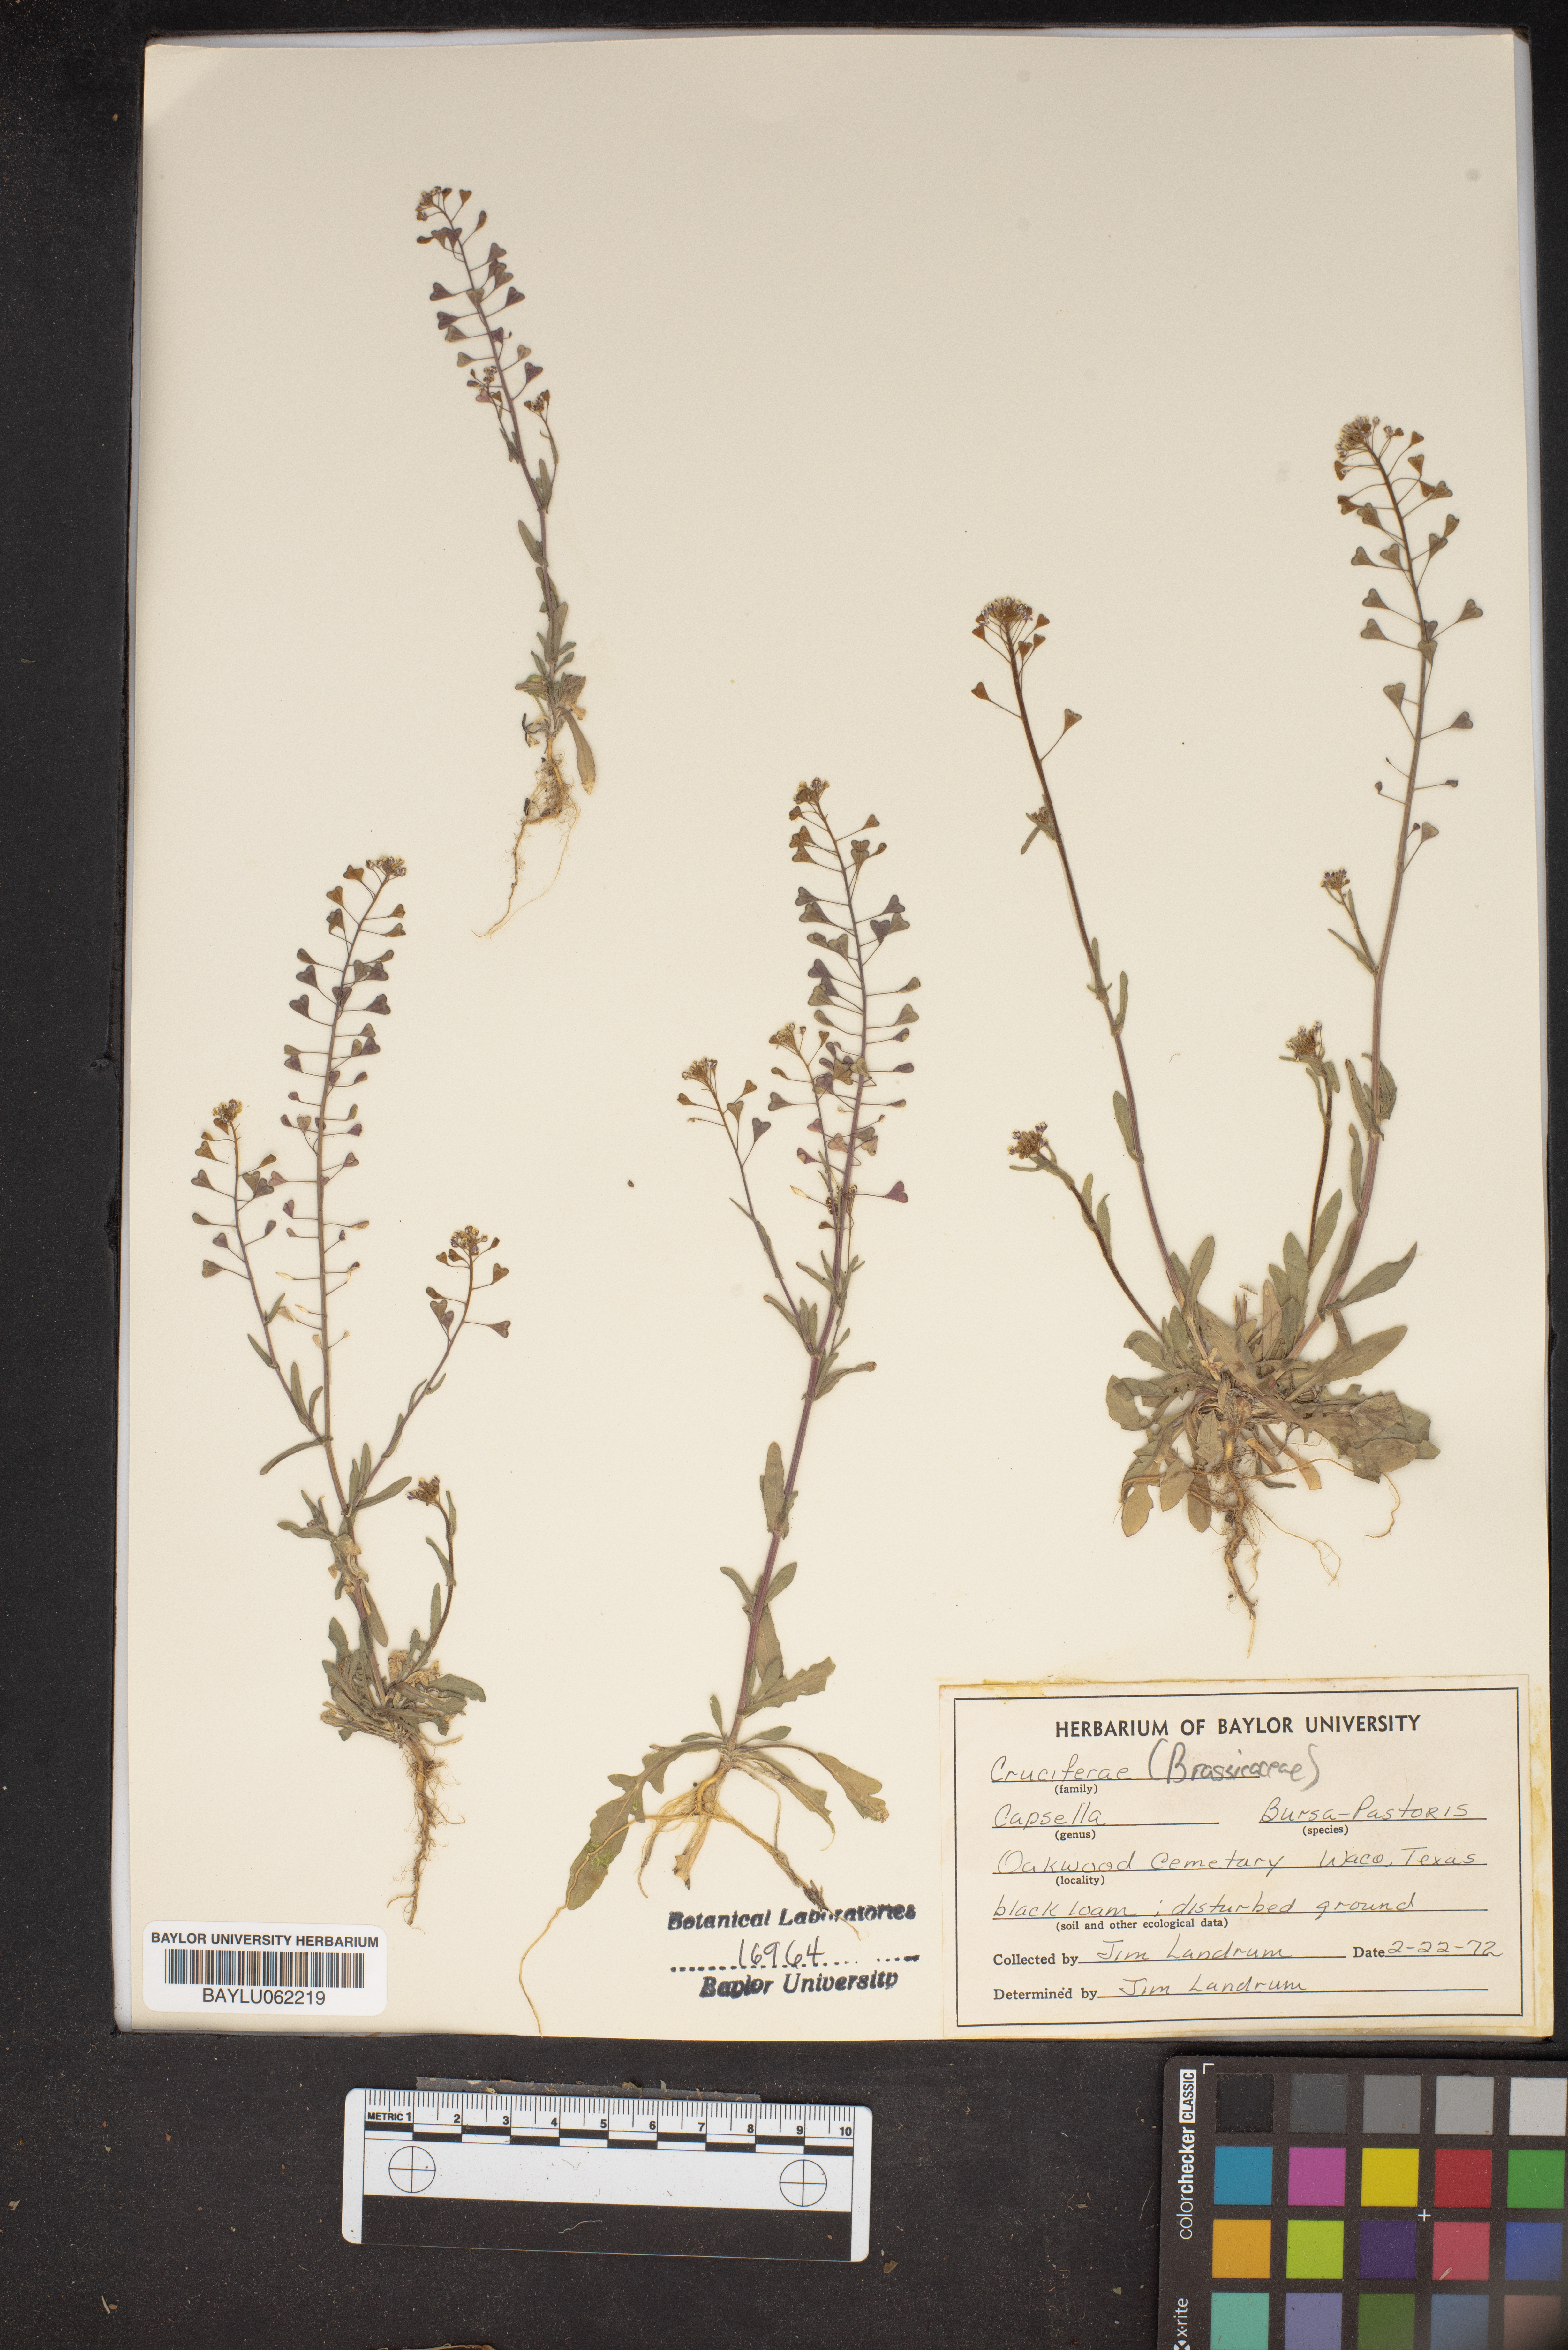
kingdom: Plantae
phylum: Tracheophyta
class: Magnoliopsida
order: Brassicales
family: Brassicaceae
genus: Capsella
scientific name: Capsella bursa-pastoris
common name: Shepherd's purse
